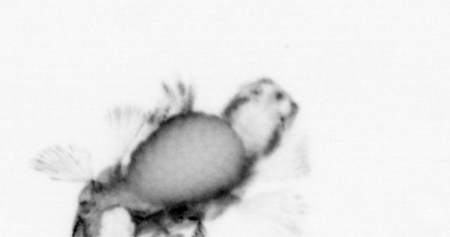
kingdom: Animalia
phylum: Annelida
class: Polychaeta
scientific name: Polychaeta
